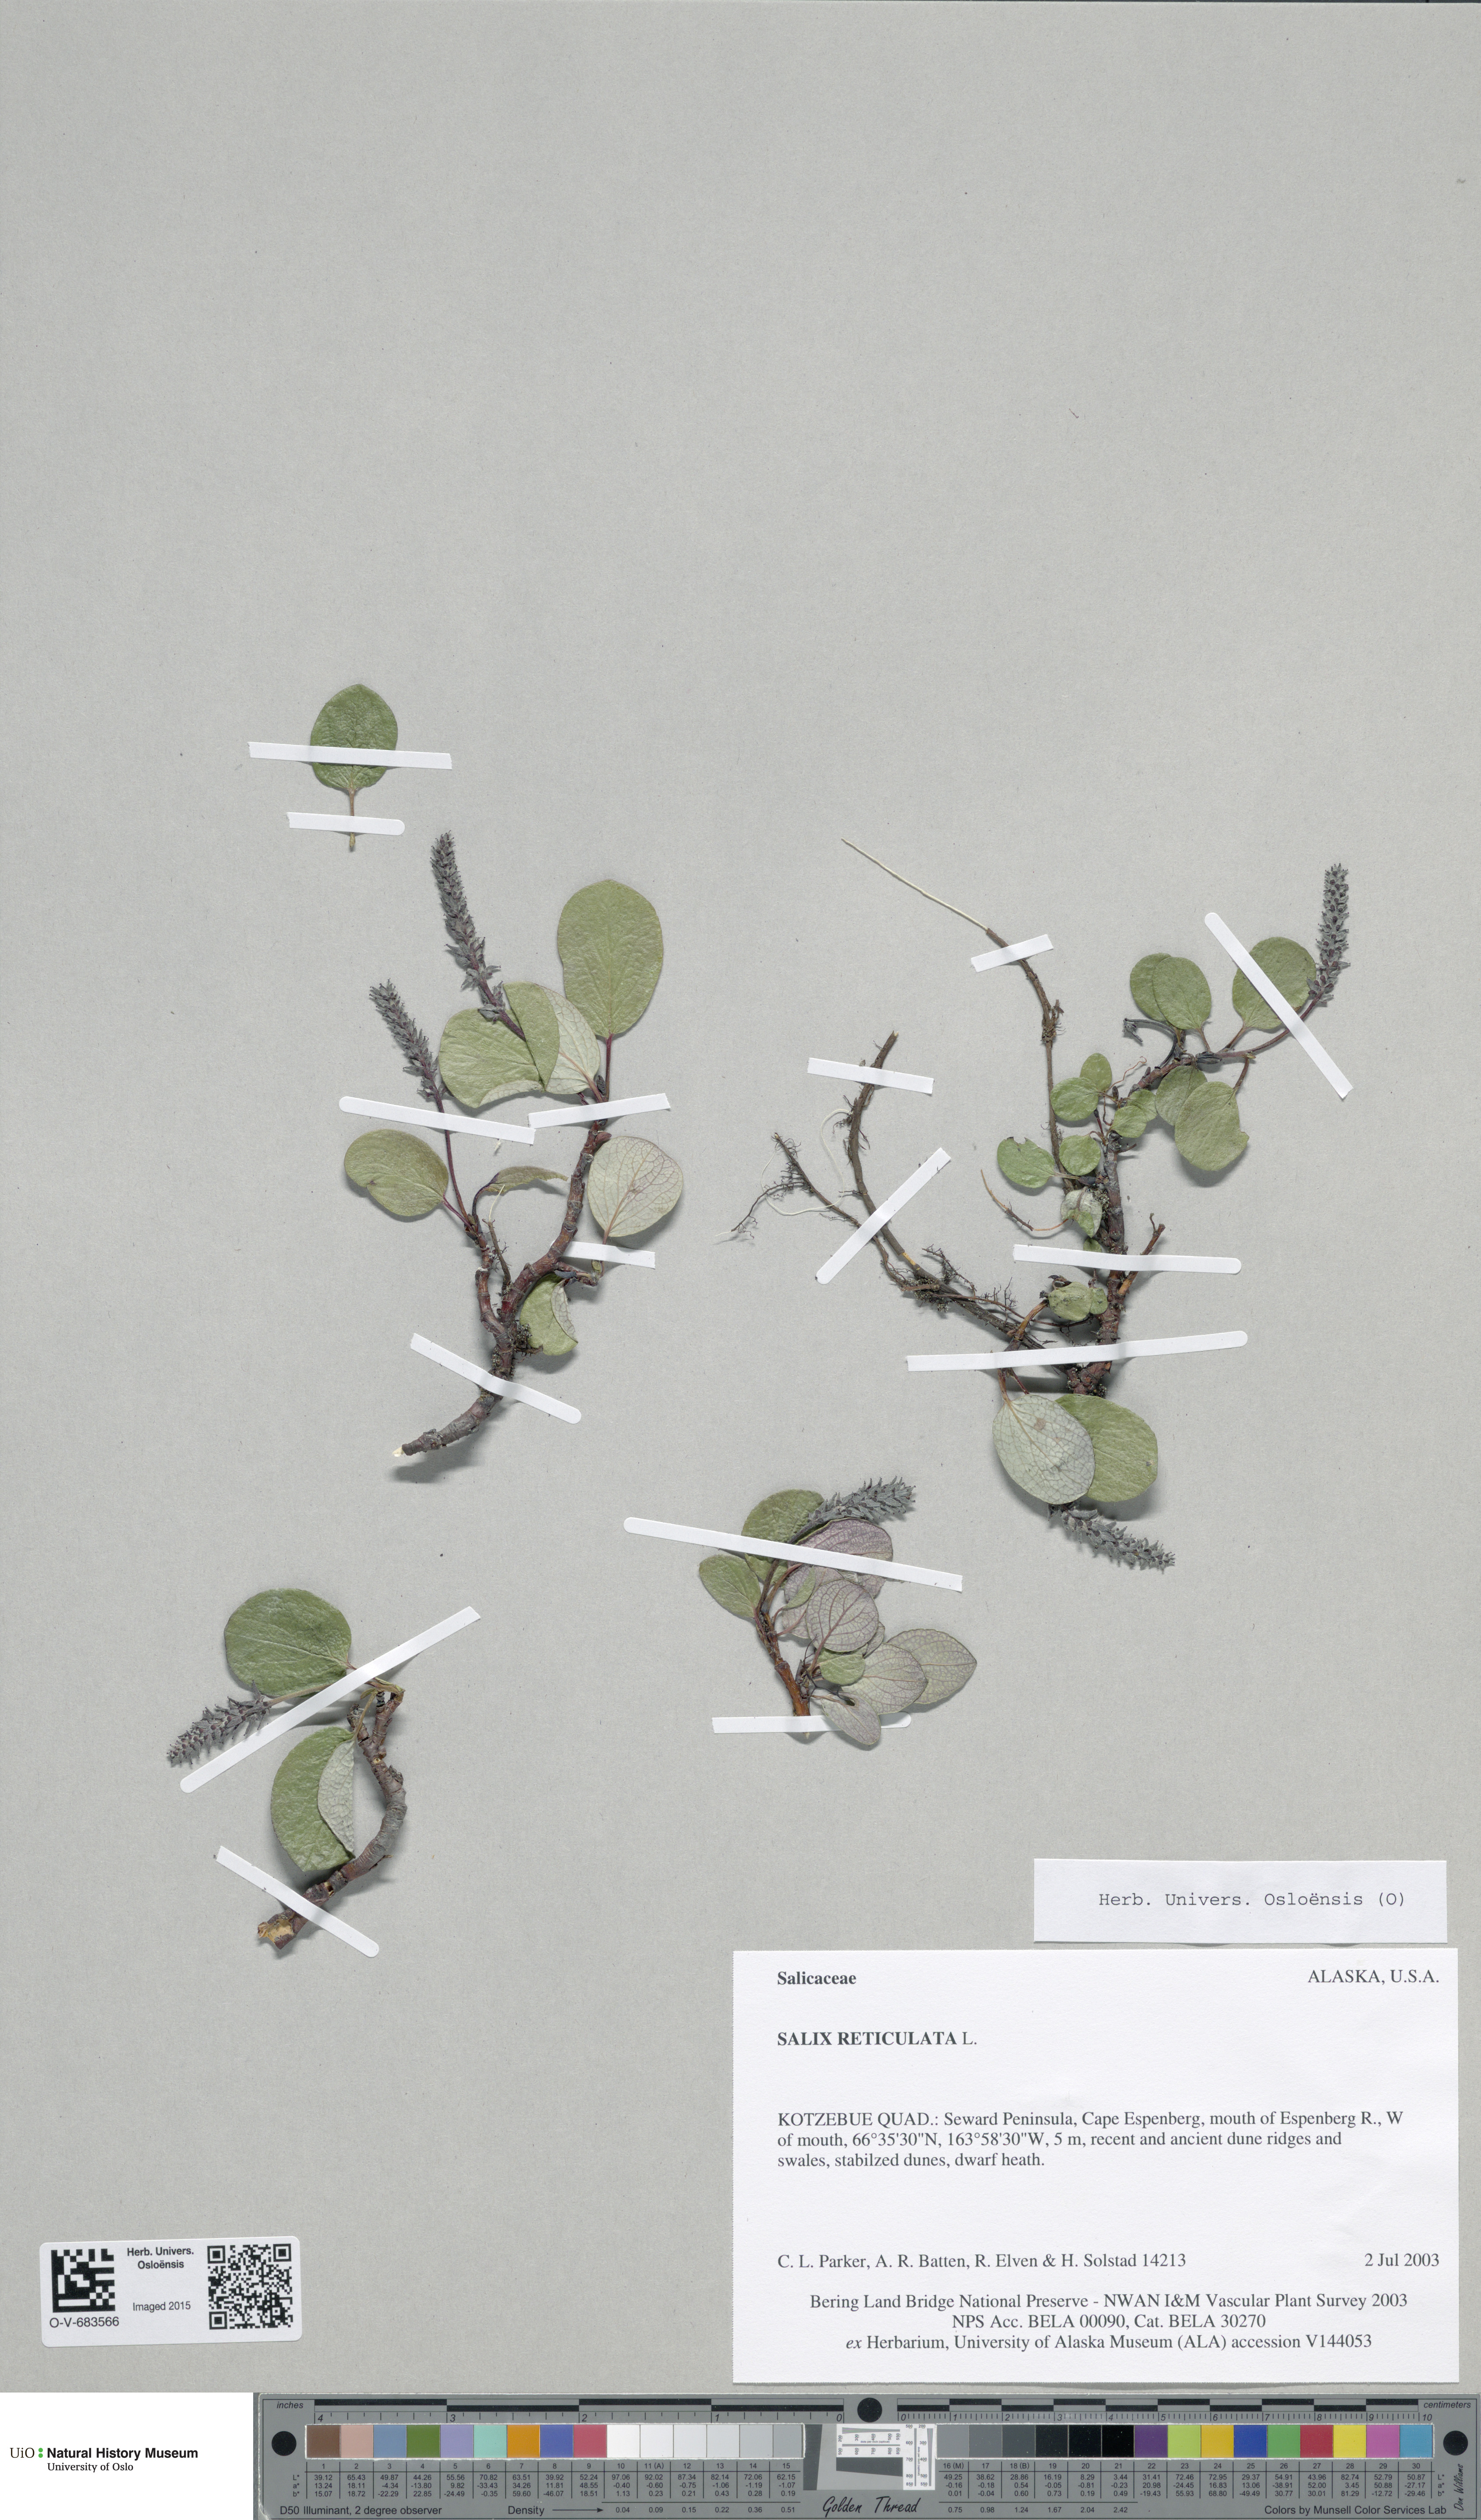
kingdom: Plantae
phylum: Tracheophyta
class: Magnoliopsida
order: Malpighiales
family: Salicaceae
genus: Salix
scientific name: Salix reticulata
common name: Net-leaved willow
